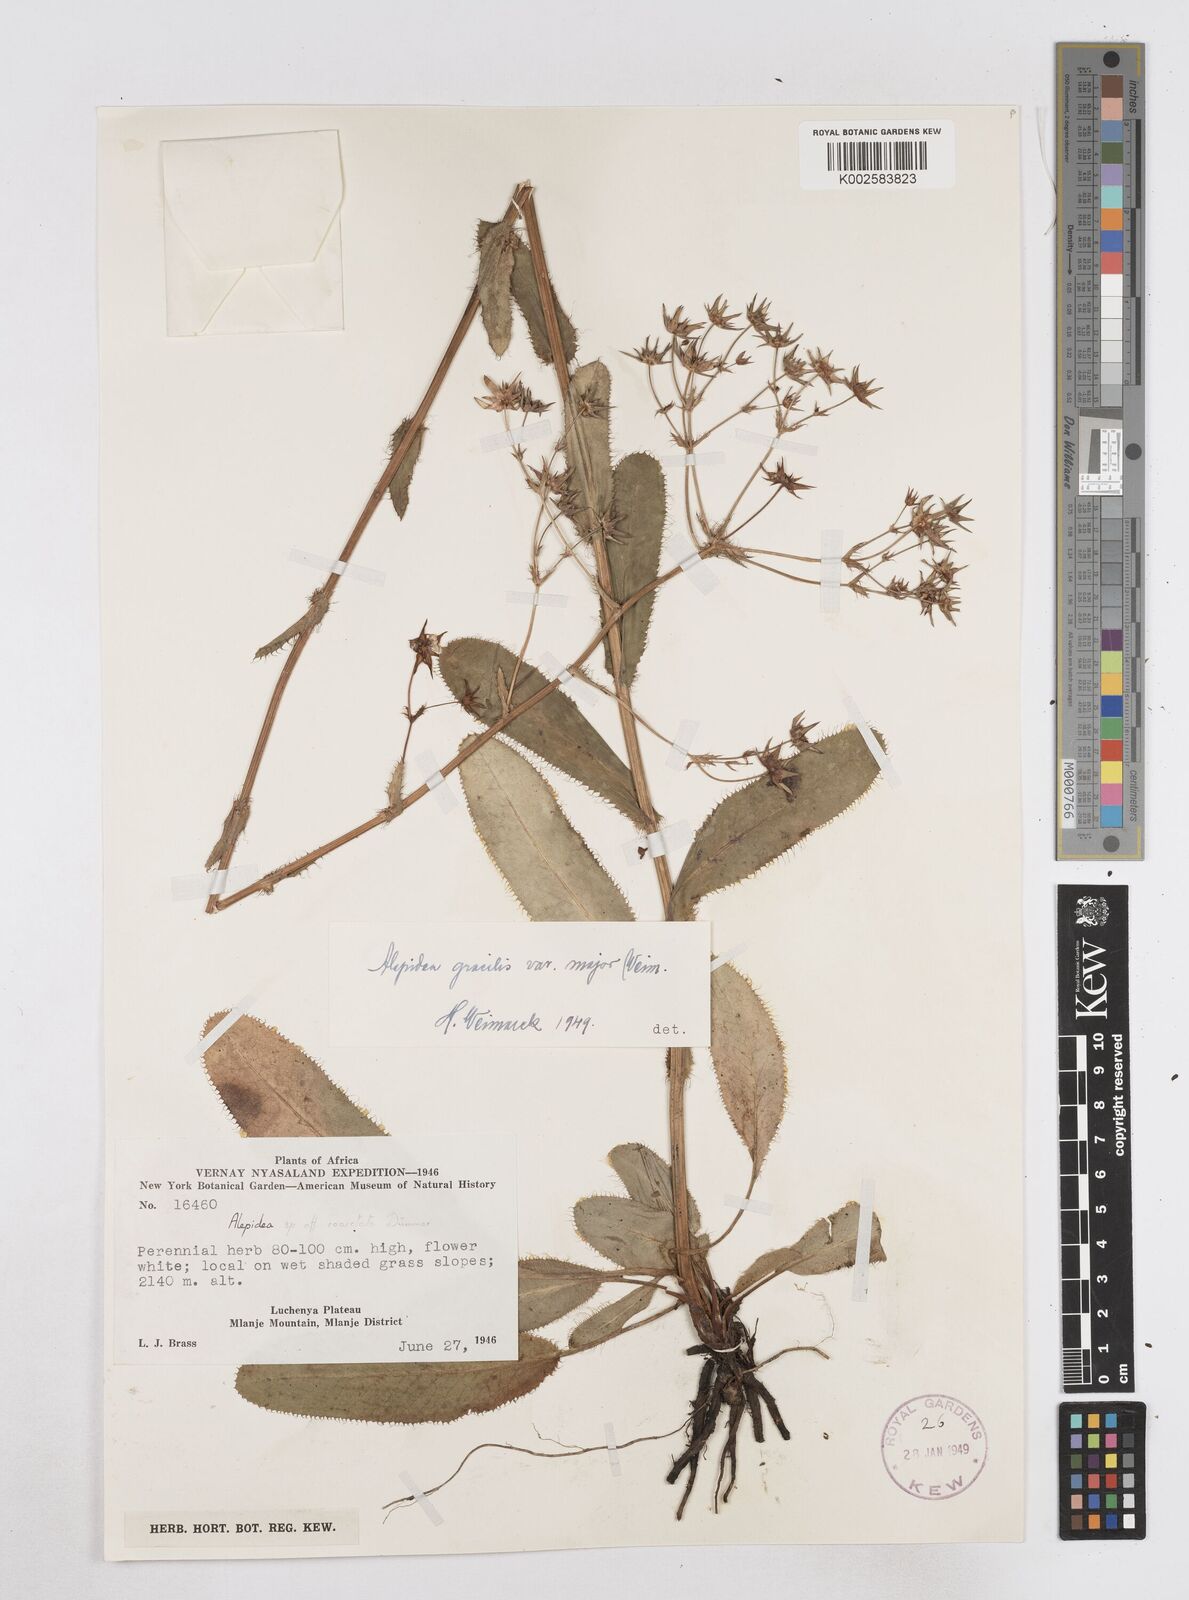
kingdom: Plantae
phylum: Tracheophyta
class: Magnoliopsida
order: Apiales
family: Apiaceae
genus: Alepidea
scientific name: Alepidea peduncularis
